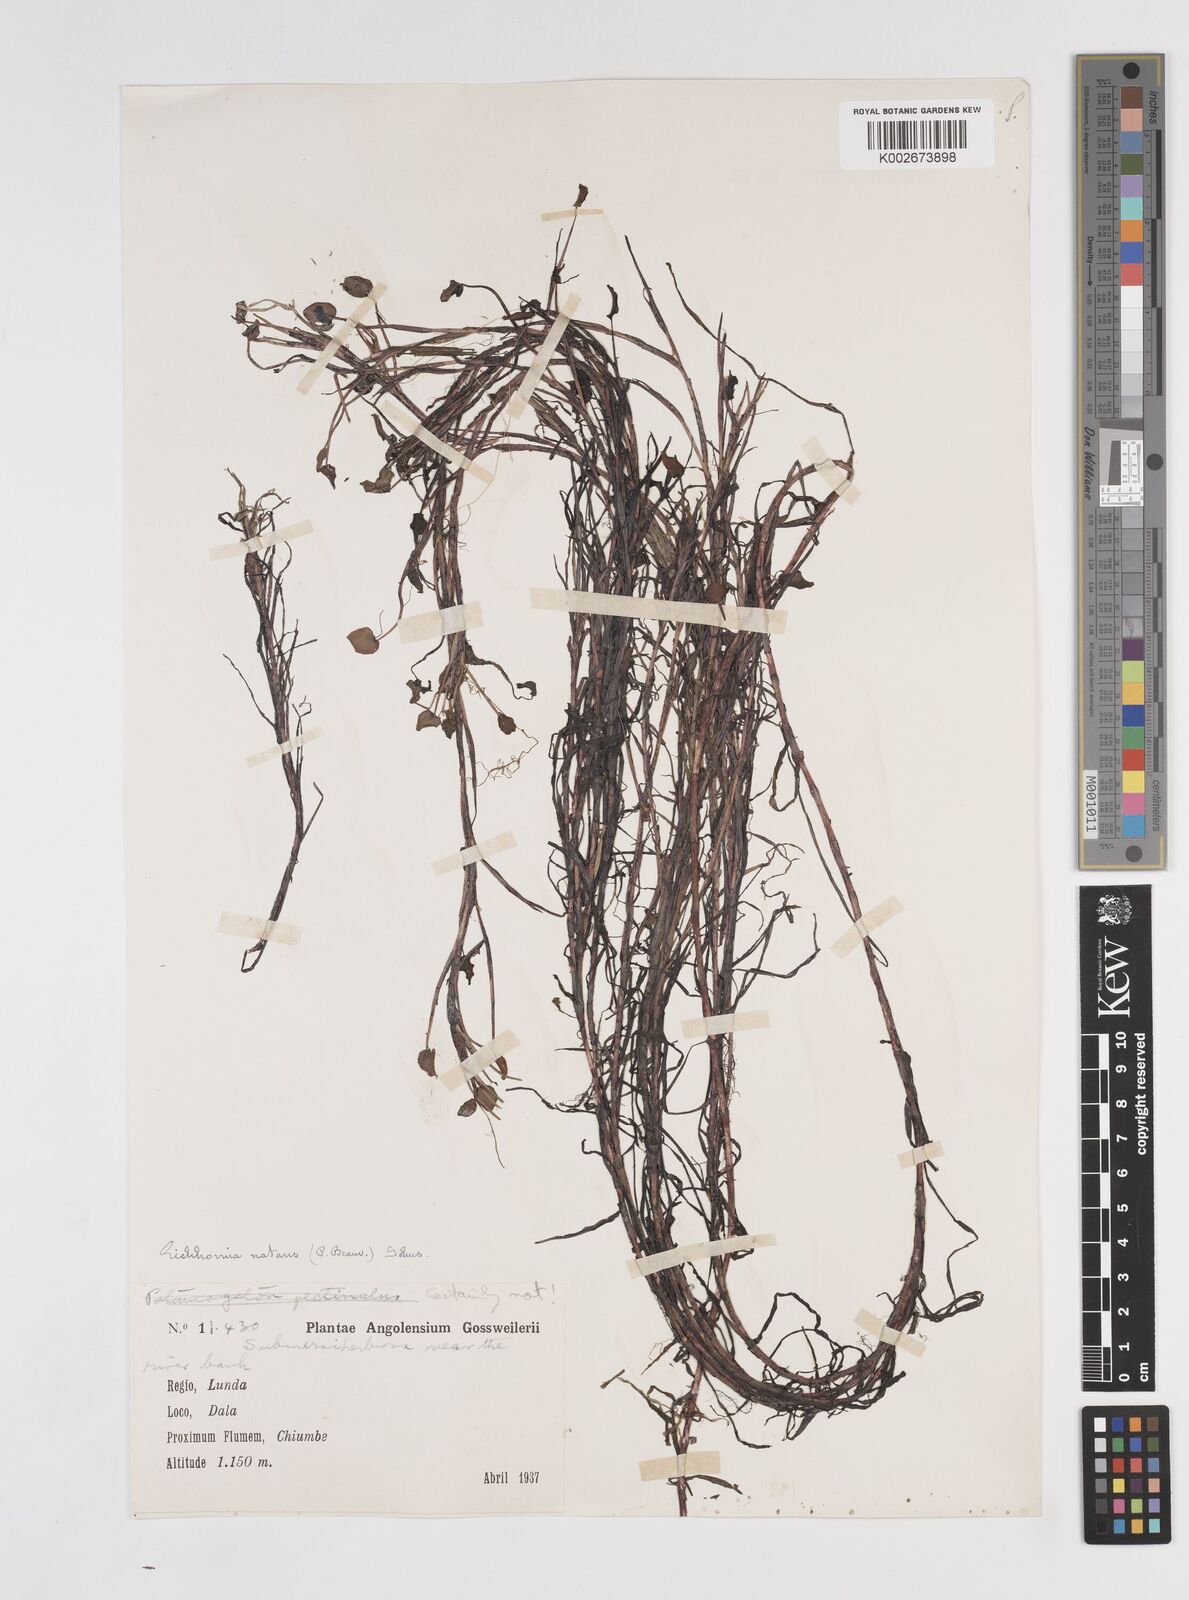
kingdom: Plantae
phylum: Tracheophyta
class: Liliopsida
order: Commelinales
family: Pontederiaceae
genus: Pontederia
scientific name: Pontederia diversifolia
